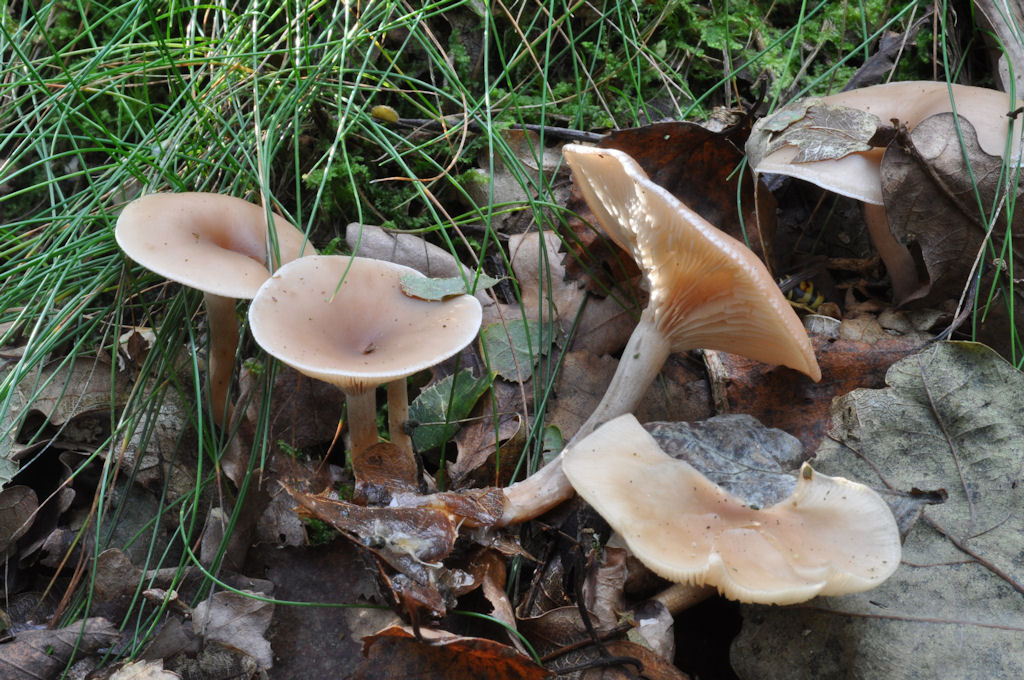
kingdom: Fungi
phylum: Basidiomycota
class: Agaricomycetes
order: Agaricales
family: Tricholomataceae
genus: Clitocybe
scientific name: Clitocybe diatreta
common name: kødfarvet tragthat
